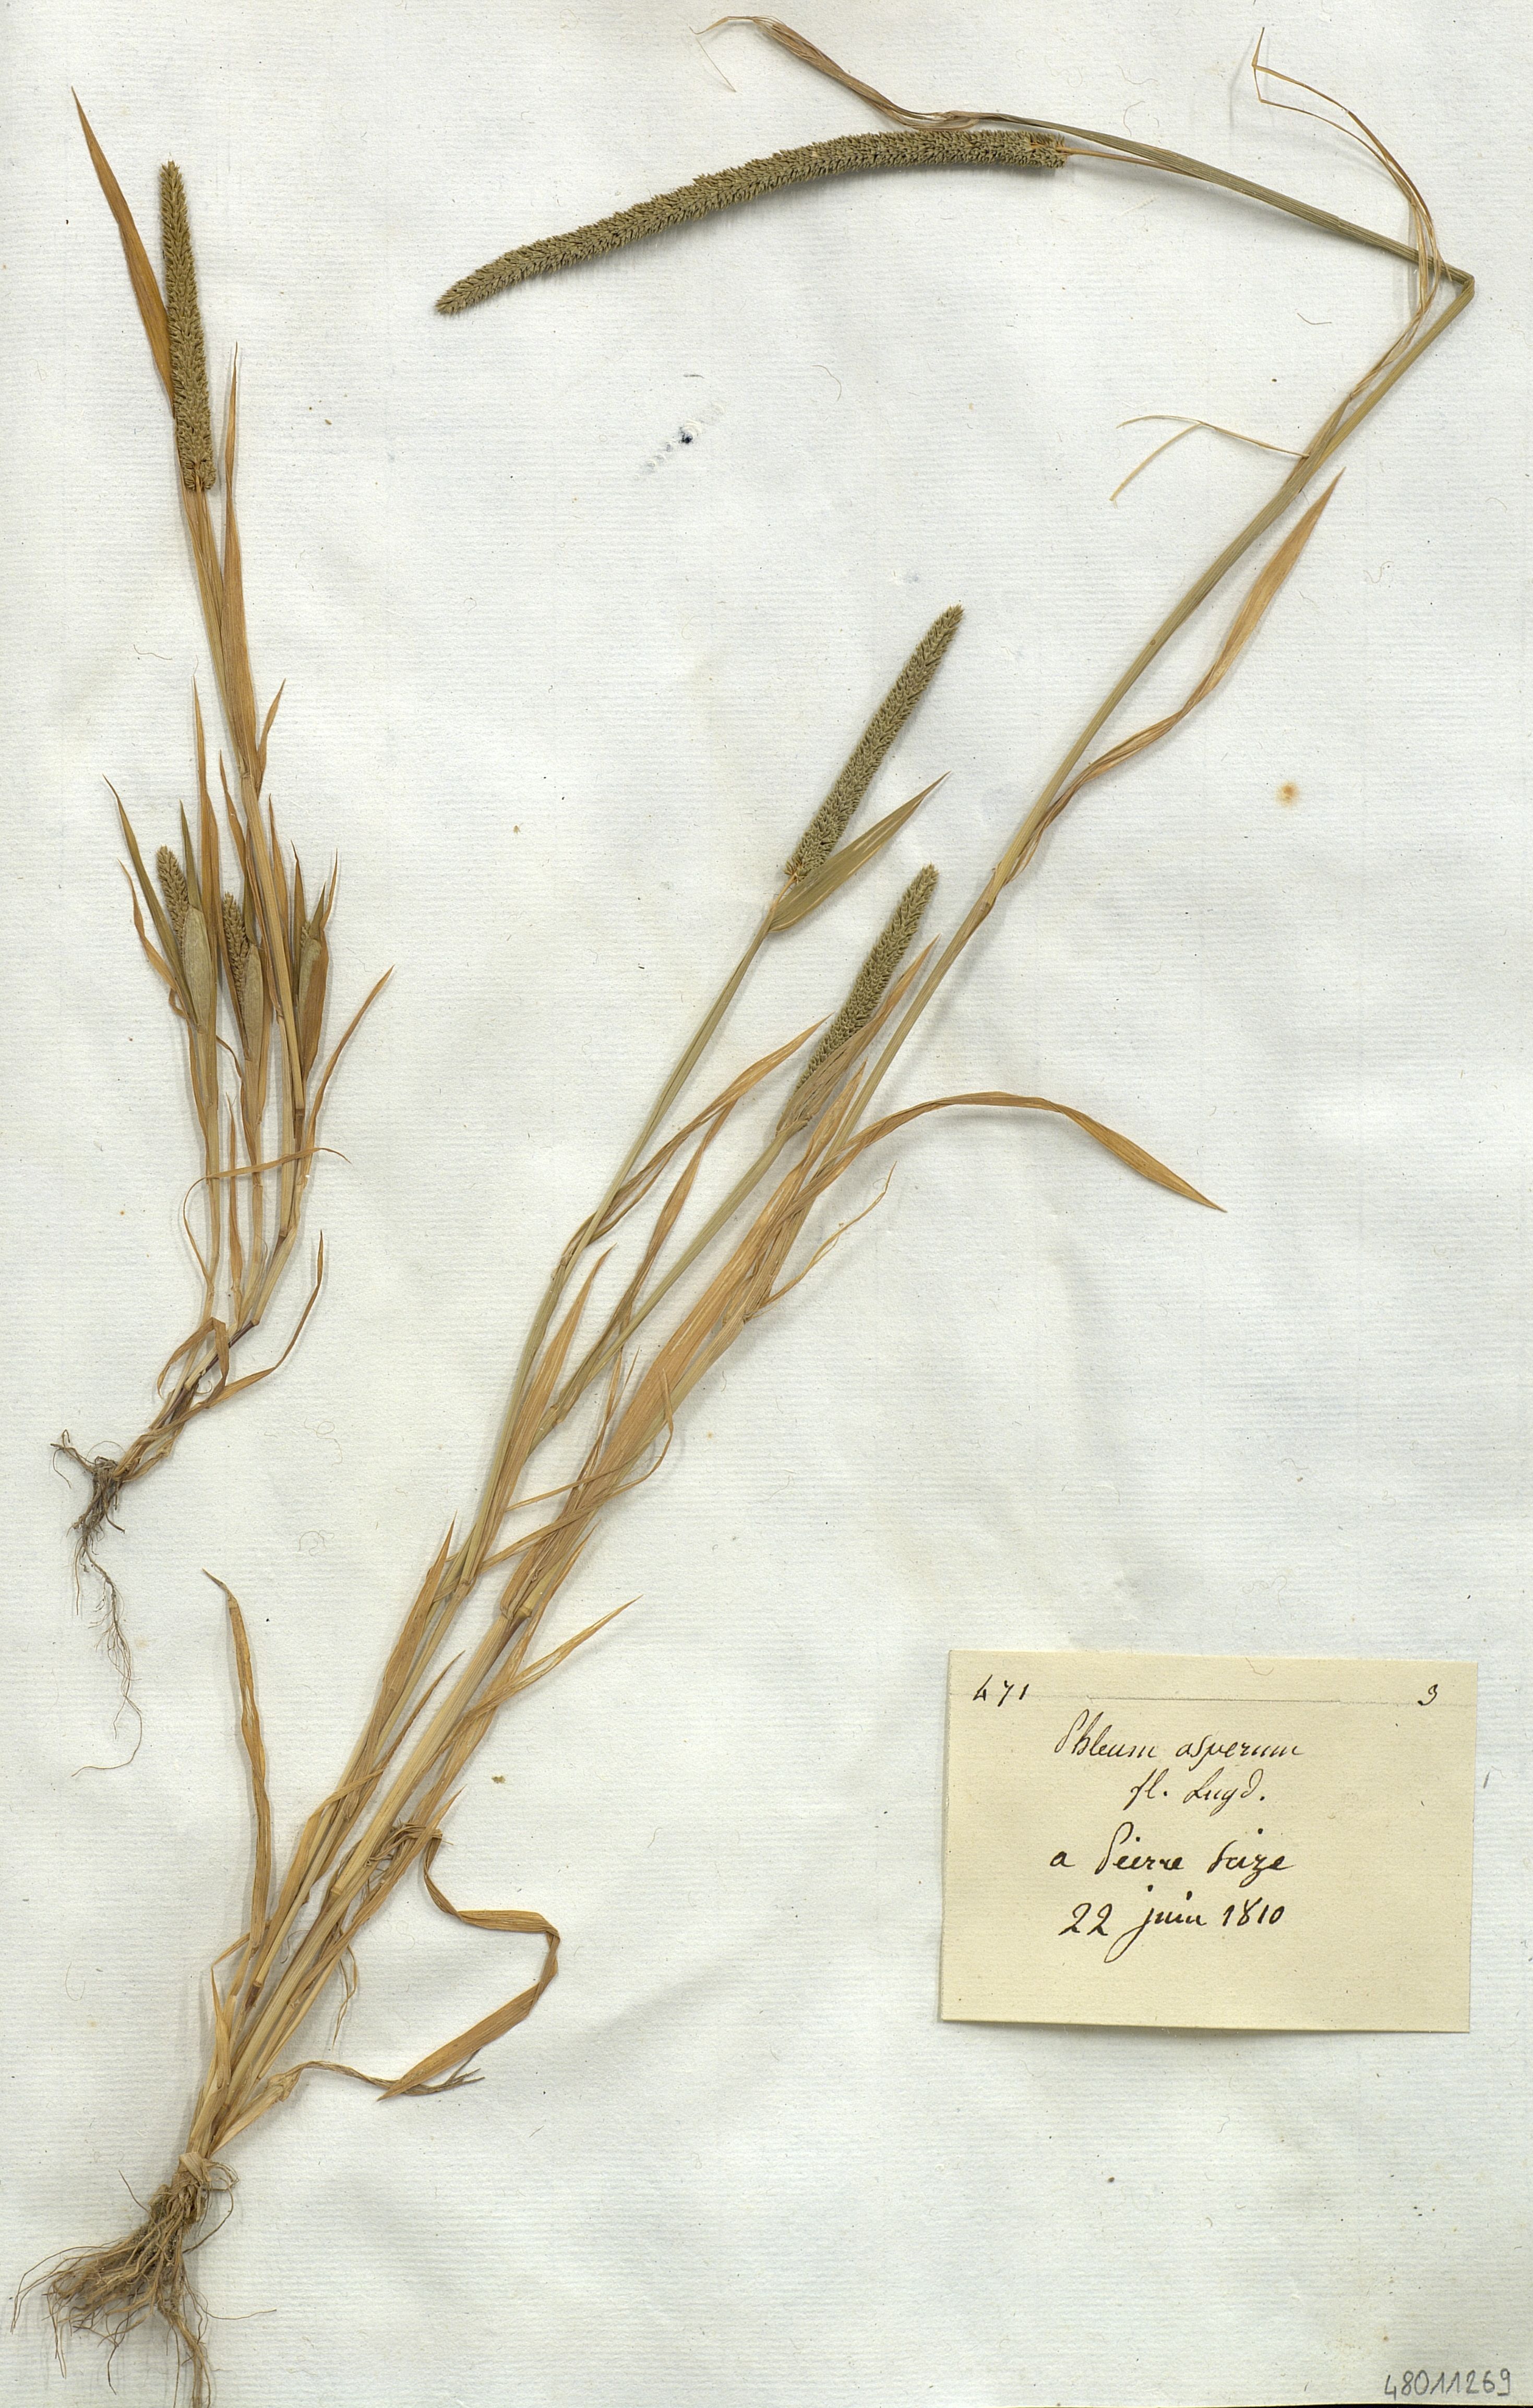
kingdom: Plantae
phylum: Tracheophyta
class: Liliopsida
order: Poales
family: Poaceae
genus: Phleum
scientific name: Phleum paniculatum
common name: British timothy
